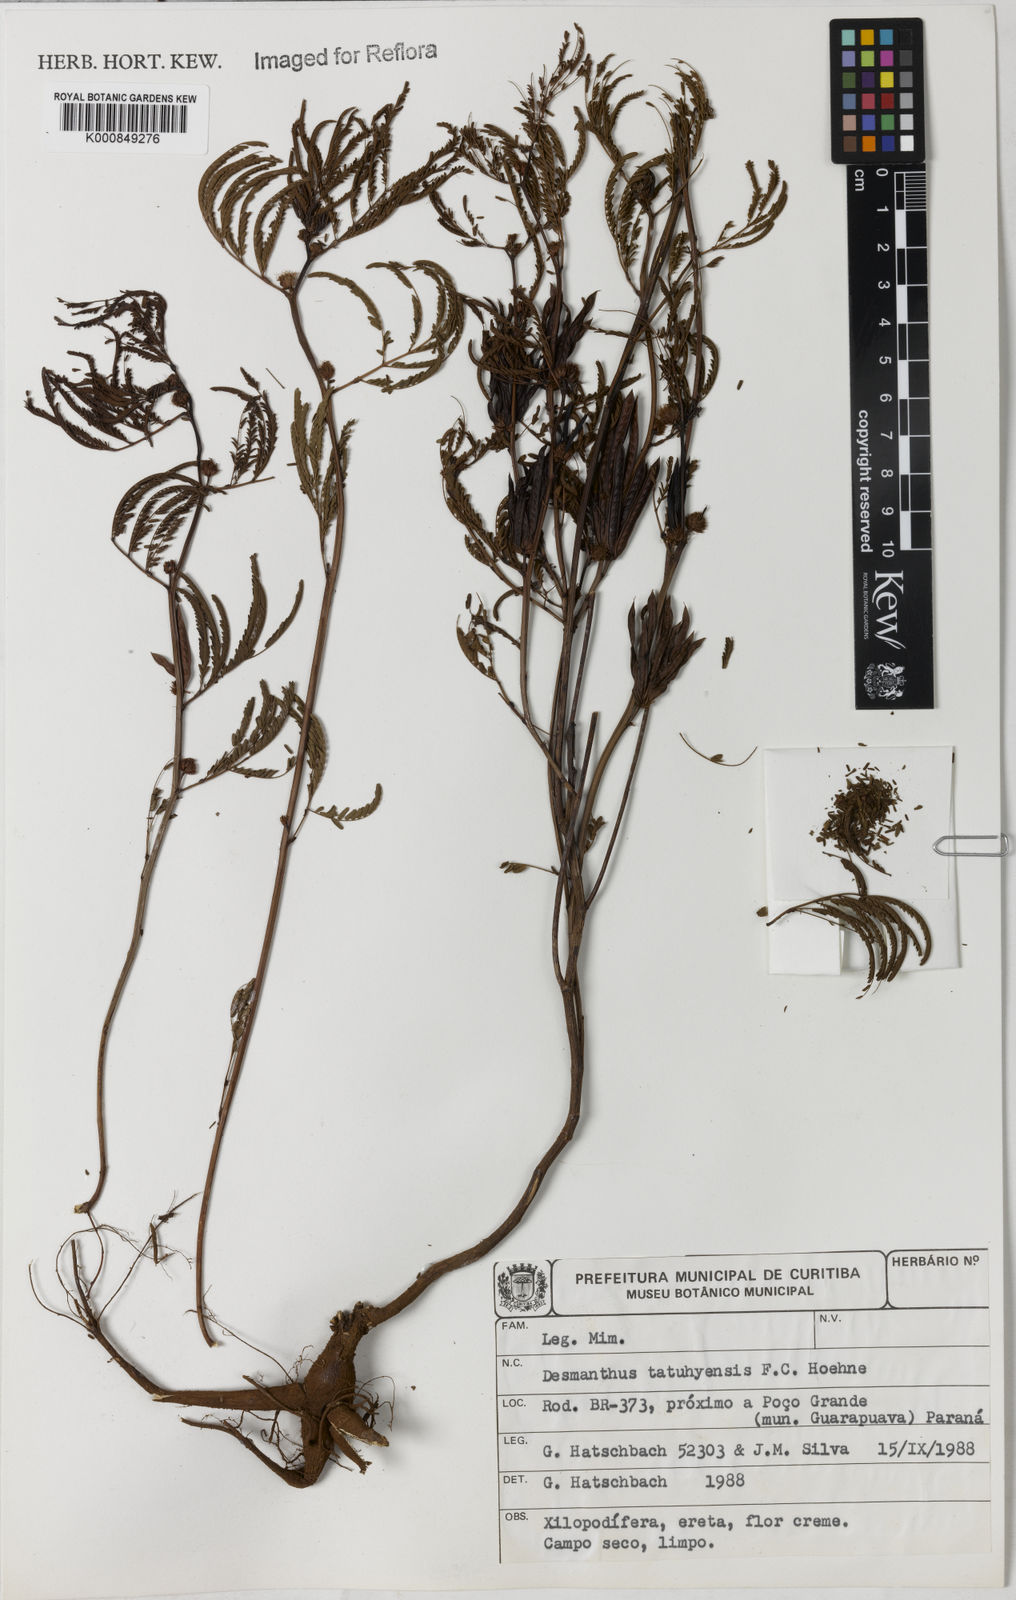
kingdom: Plantae
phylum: Tracheophyta
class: Magnoliopsida
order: Fabales
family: Fabaceae
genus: Desmanthus
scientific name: Desmanthus tatuhyensis
